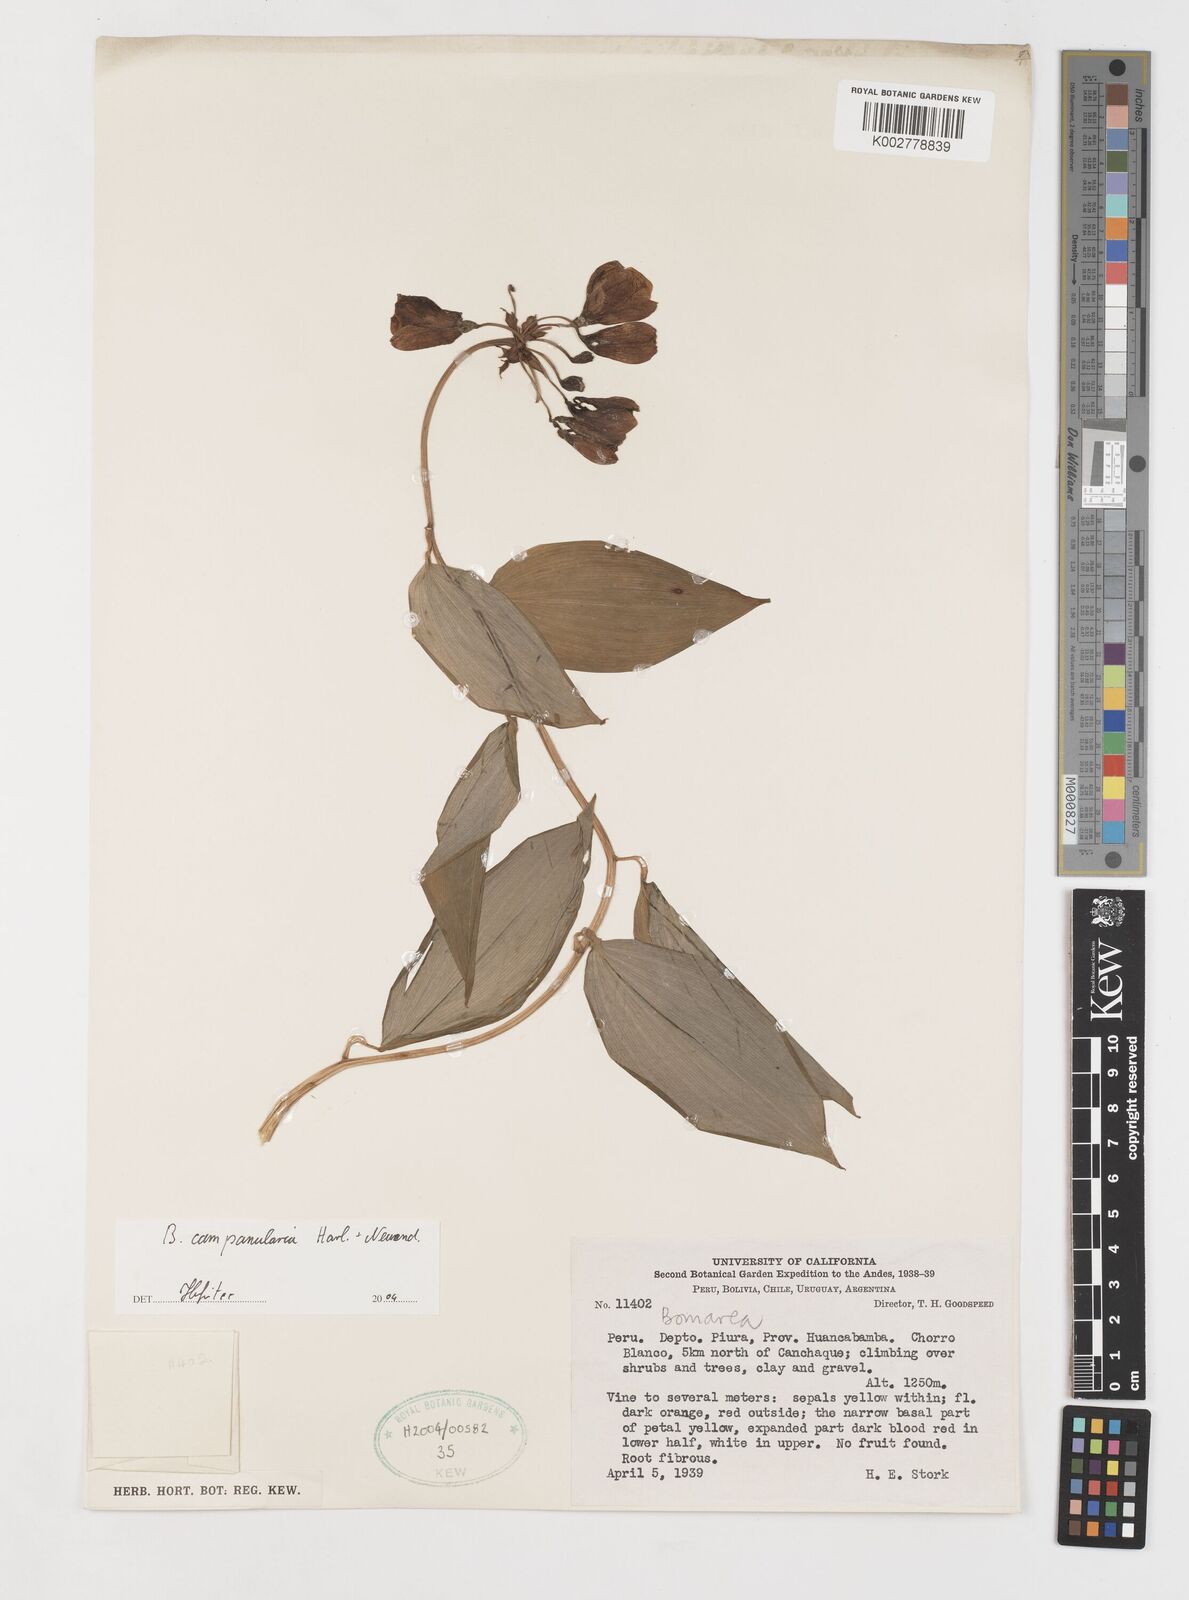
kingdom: Plantae
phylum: Tracheophyta
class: Liliopsida
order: Liliales
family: Alstroemeriaceae
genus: Bomarea
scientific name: Bomarea campanularia
